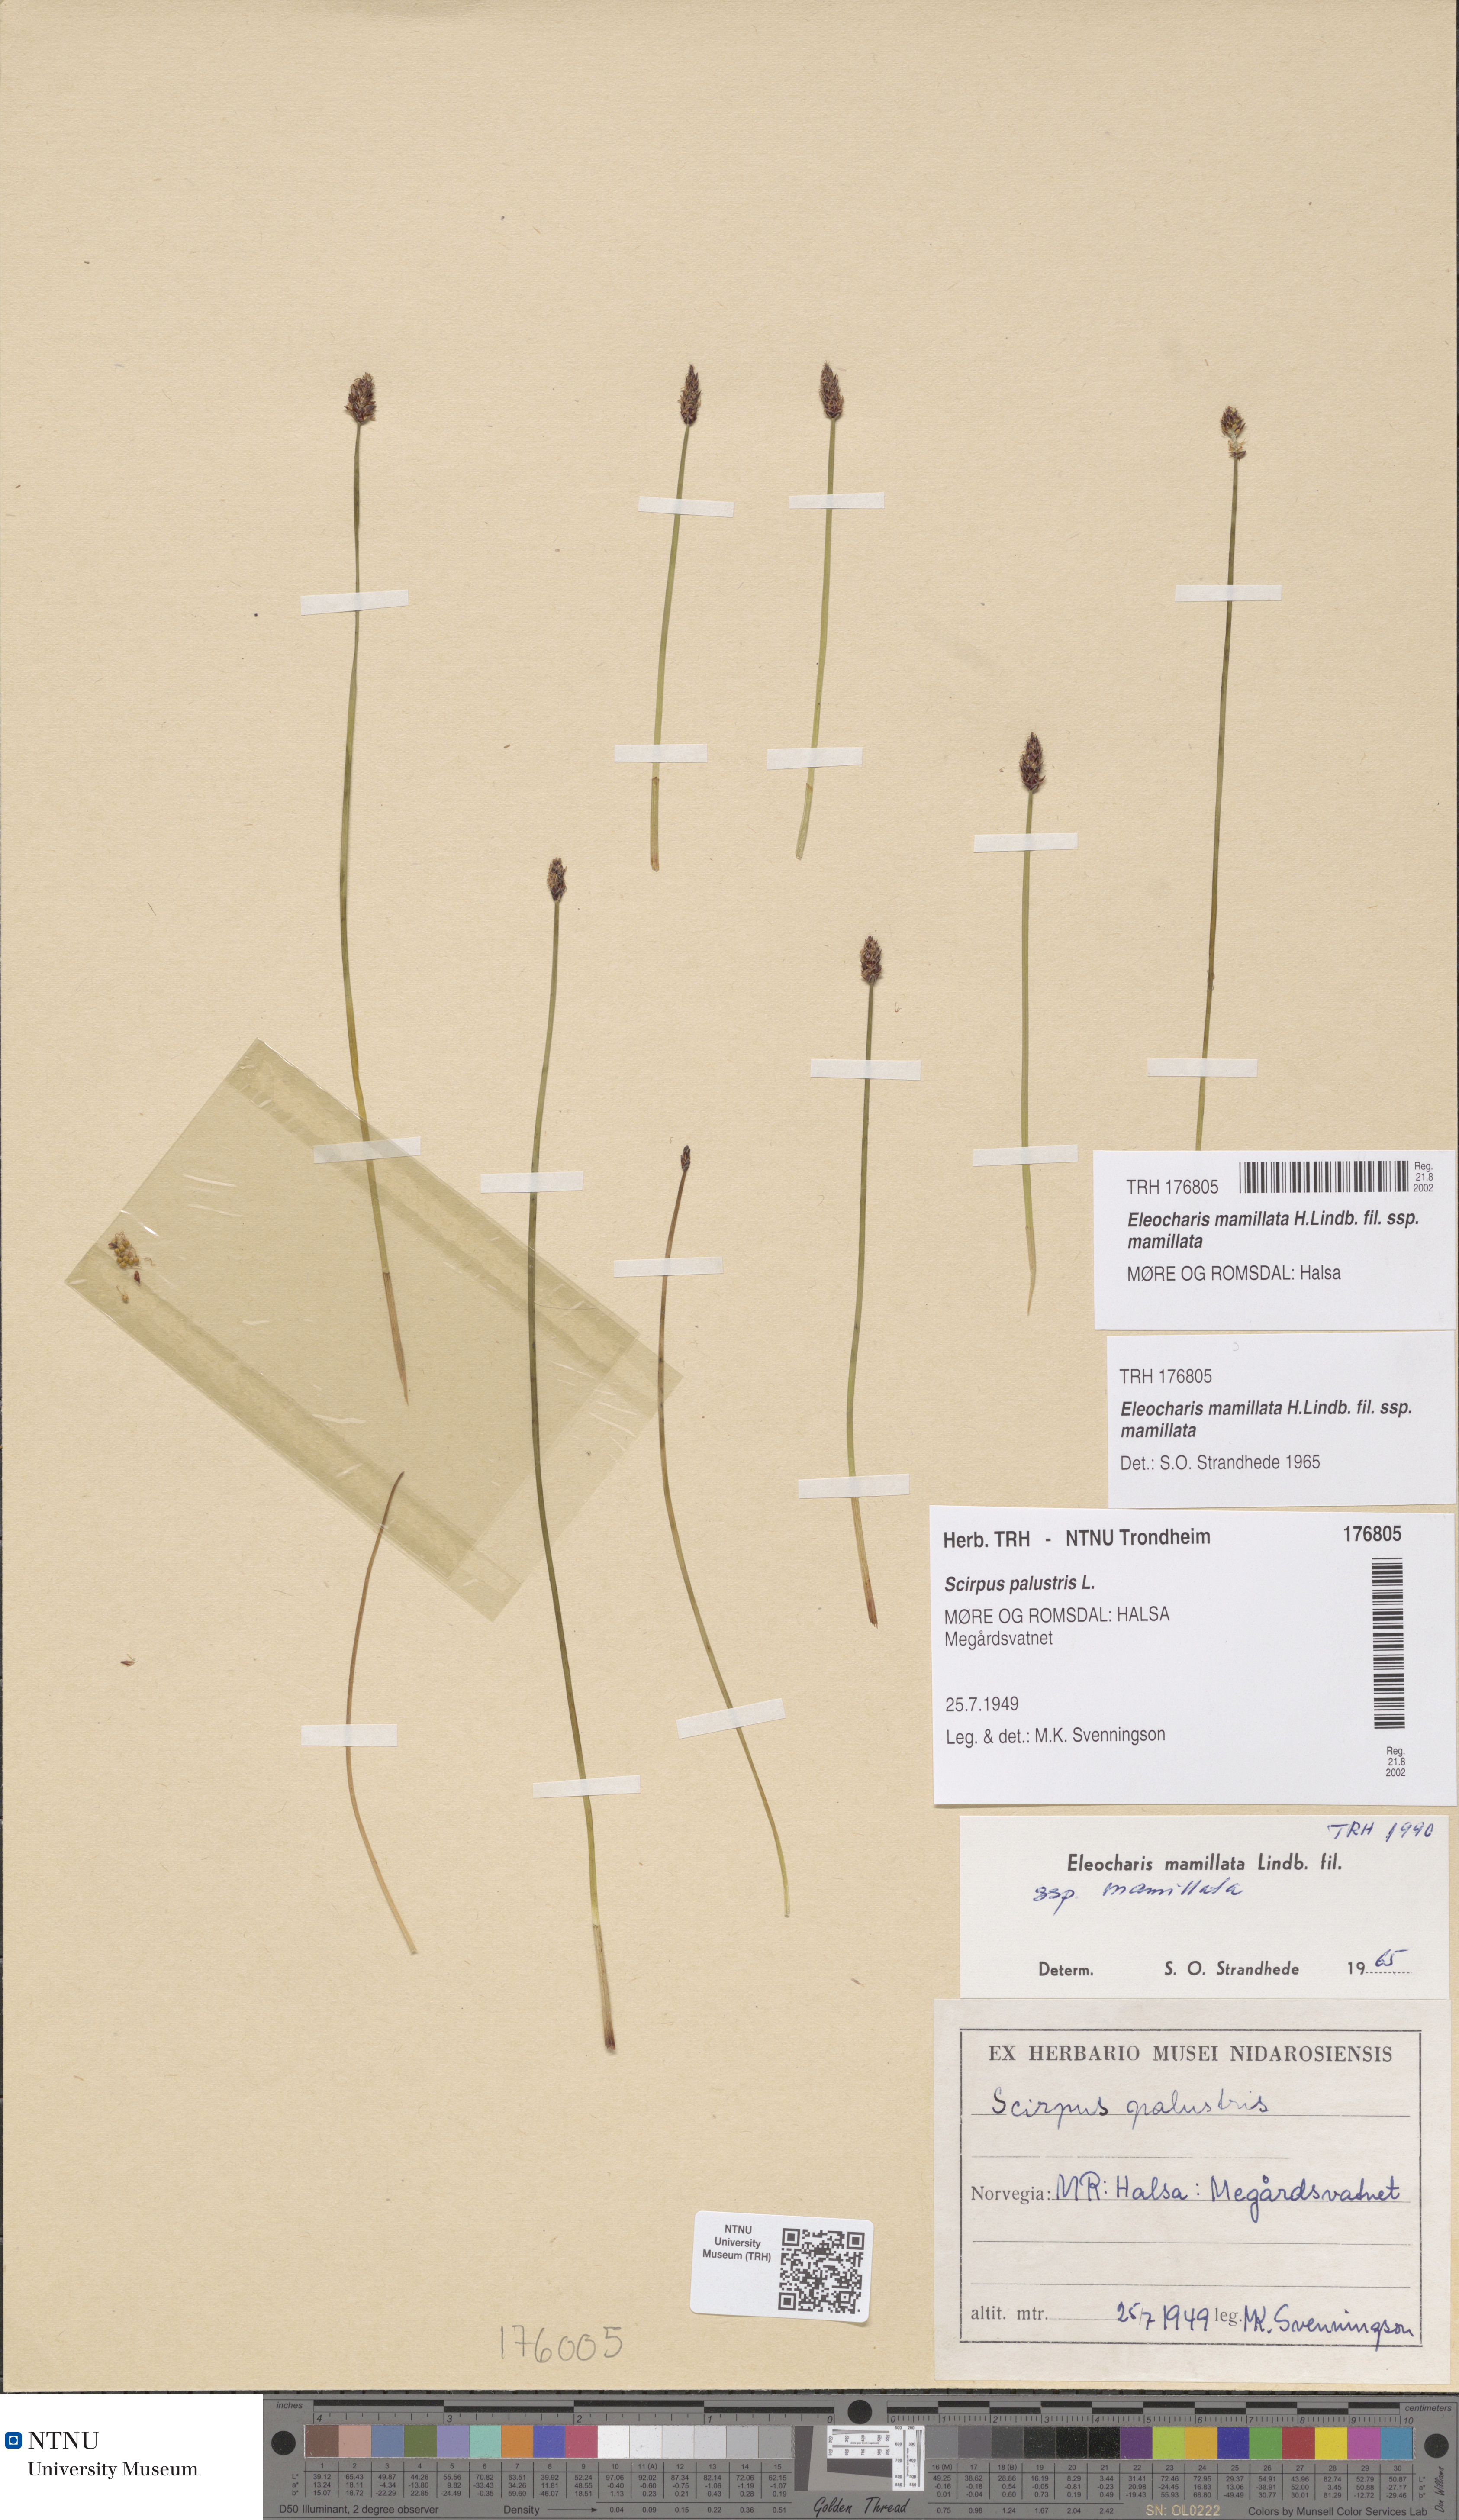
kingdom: Plantae
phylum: Tracheophyta
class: Liliopsida
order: Poales
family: Cyperaceae
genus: Eleocharis
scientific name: Eleocharis mamillata
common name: Northern spike-rush
